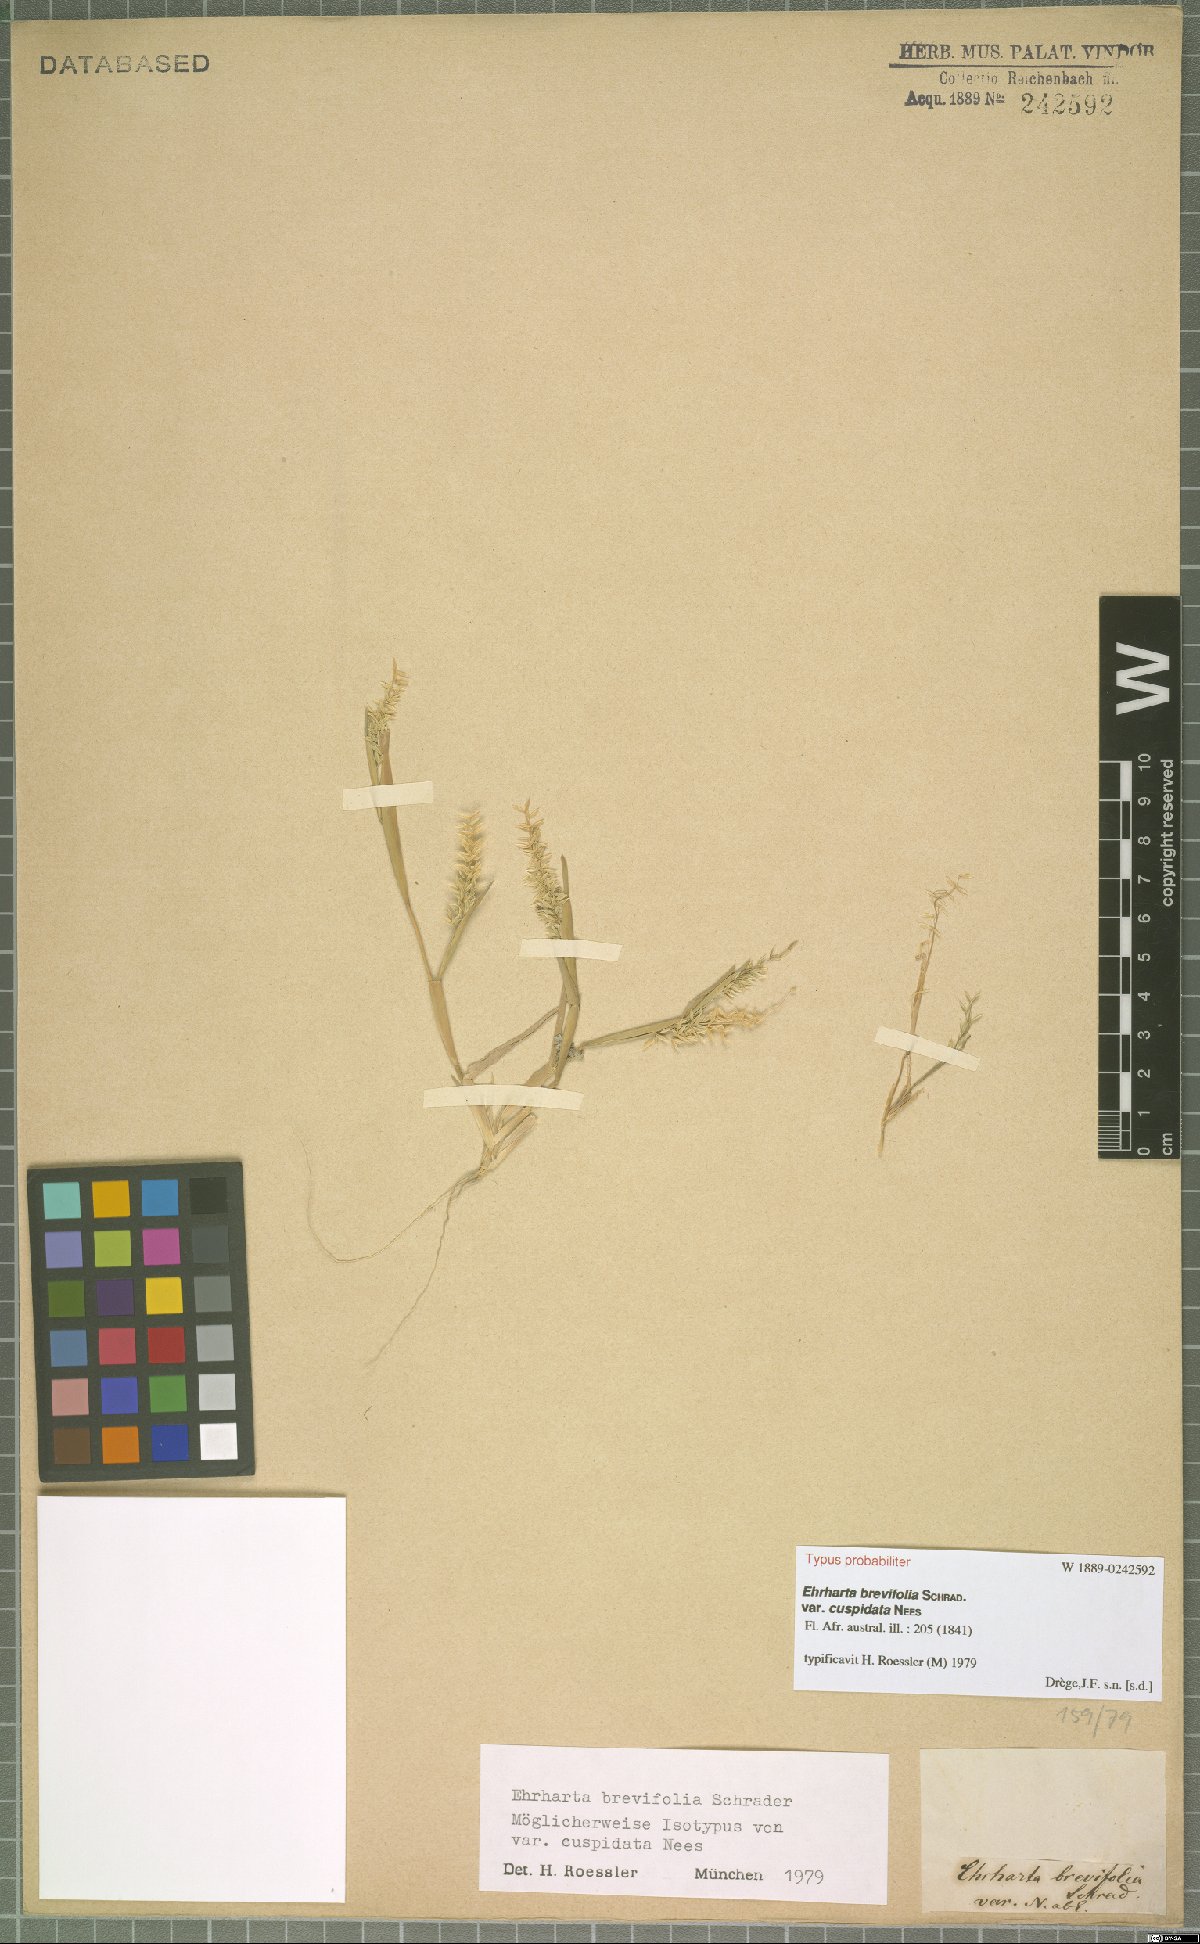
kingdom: Plantae
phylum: Tracheophyta
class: Liliopsida
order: Poales
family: Poaceae
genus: Ehrharta
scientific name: Ehrharta brevifolia
